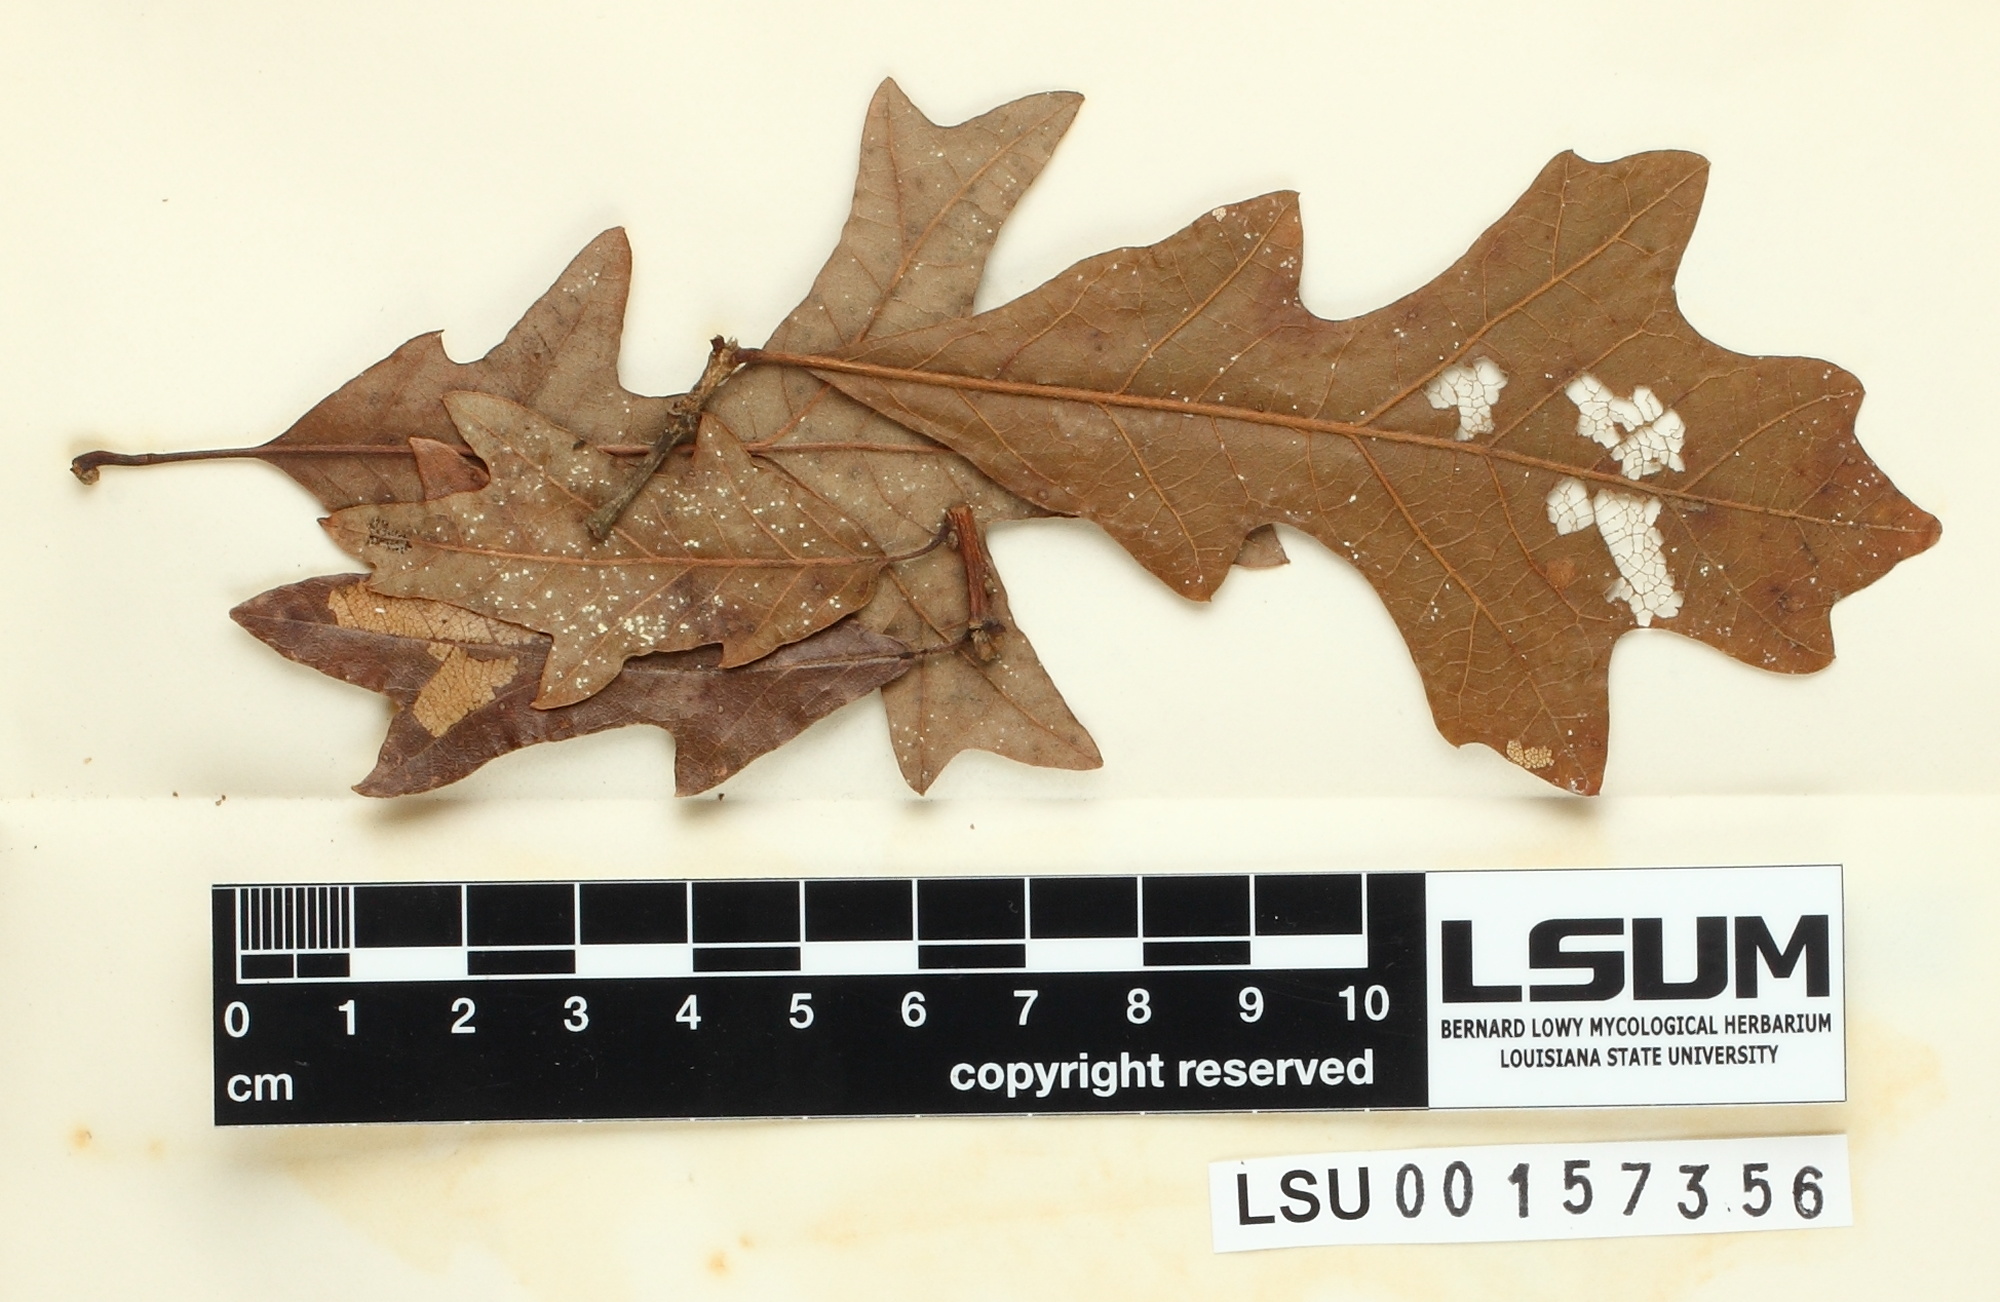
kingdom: Fungi
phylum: Ascomycota
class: Dothideomycetes
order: Myriangiales
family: Cookellaceae
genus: Cookella
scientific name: Cookella
